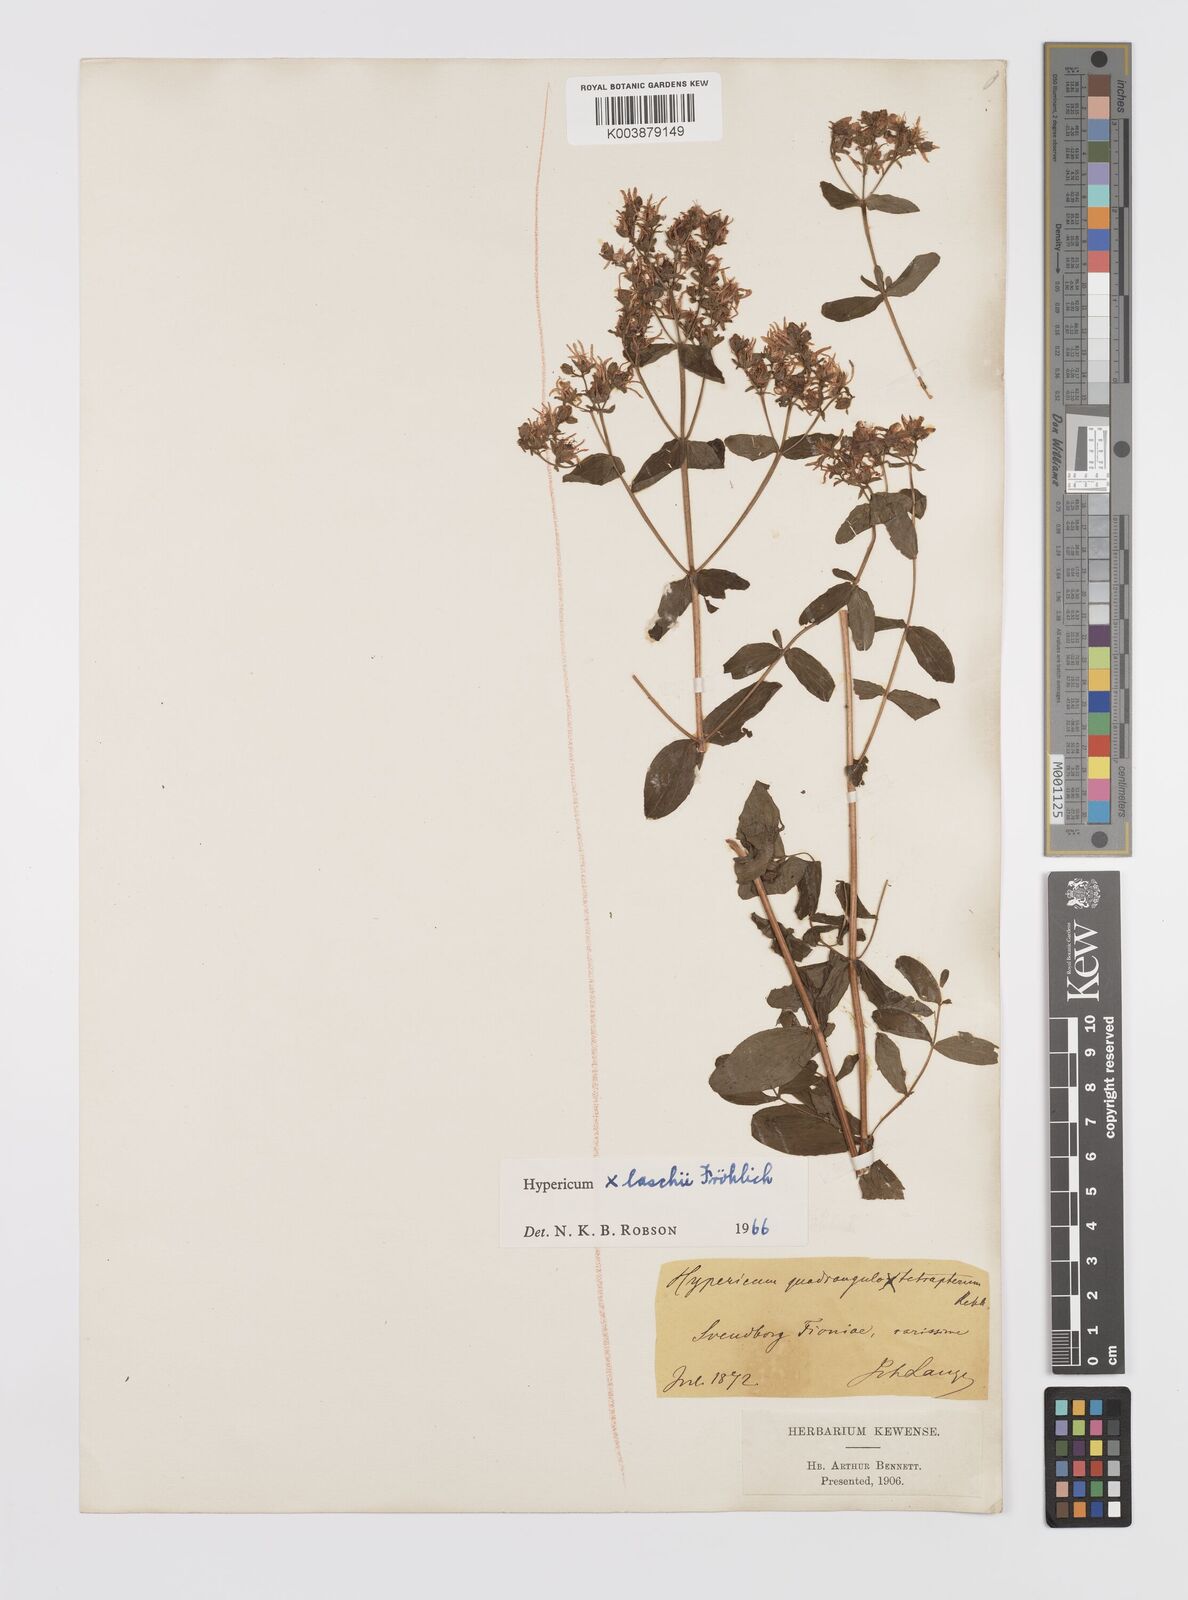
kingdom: Plantae
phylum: Tracheophyta
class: Magnoliopsida
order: Malpighiales
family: Hypericaceae
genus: Hypericum
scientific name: Hypericum laschii
